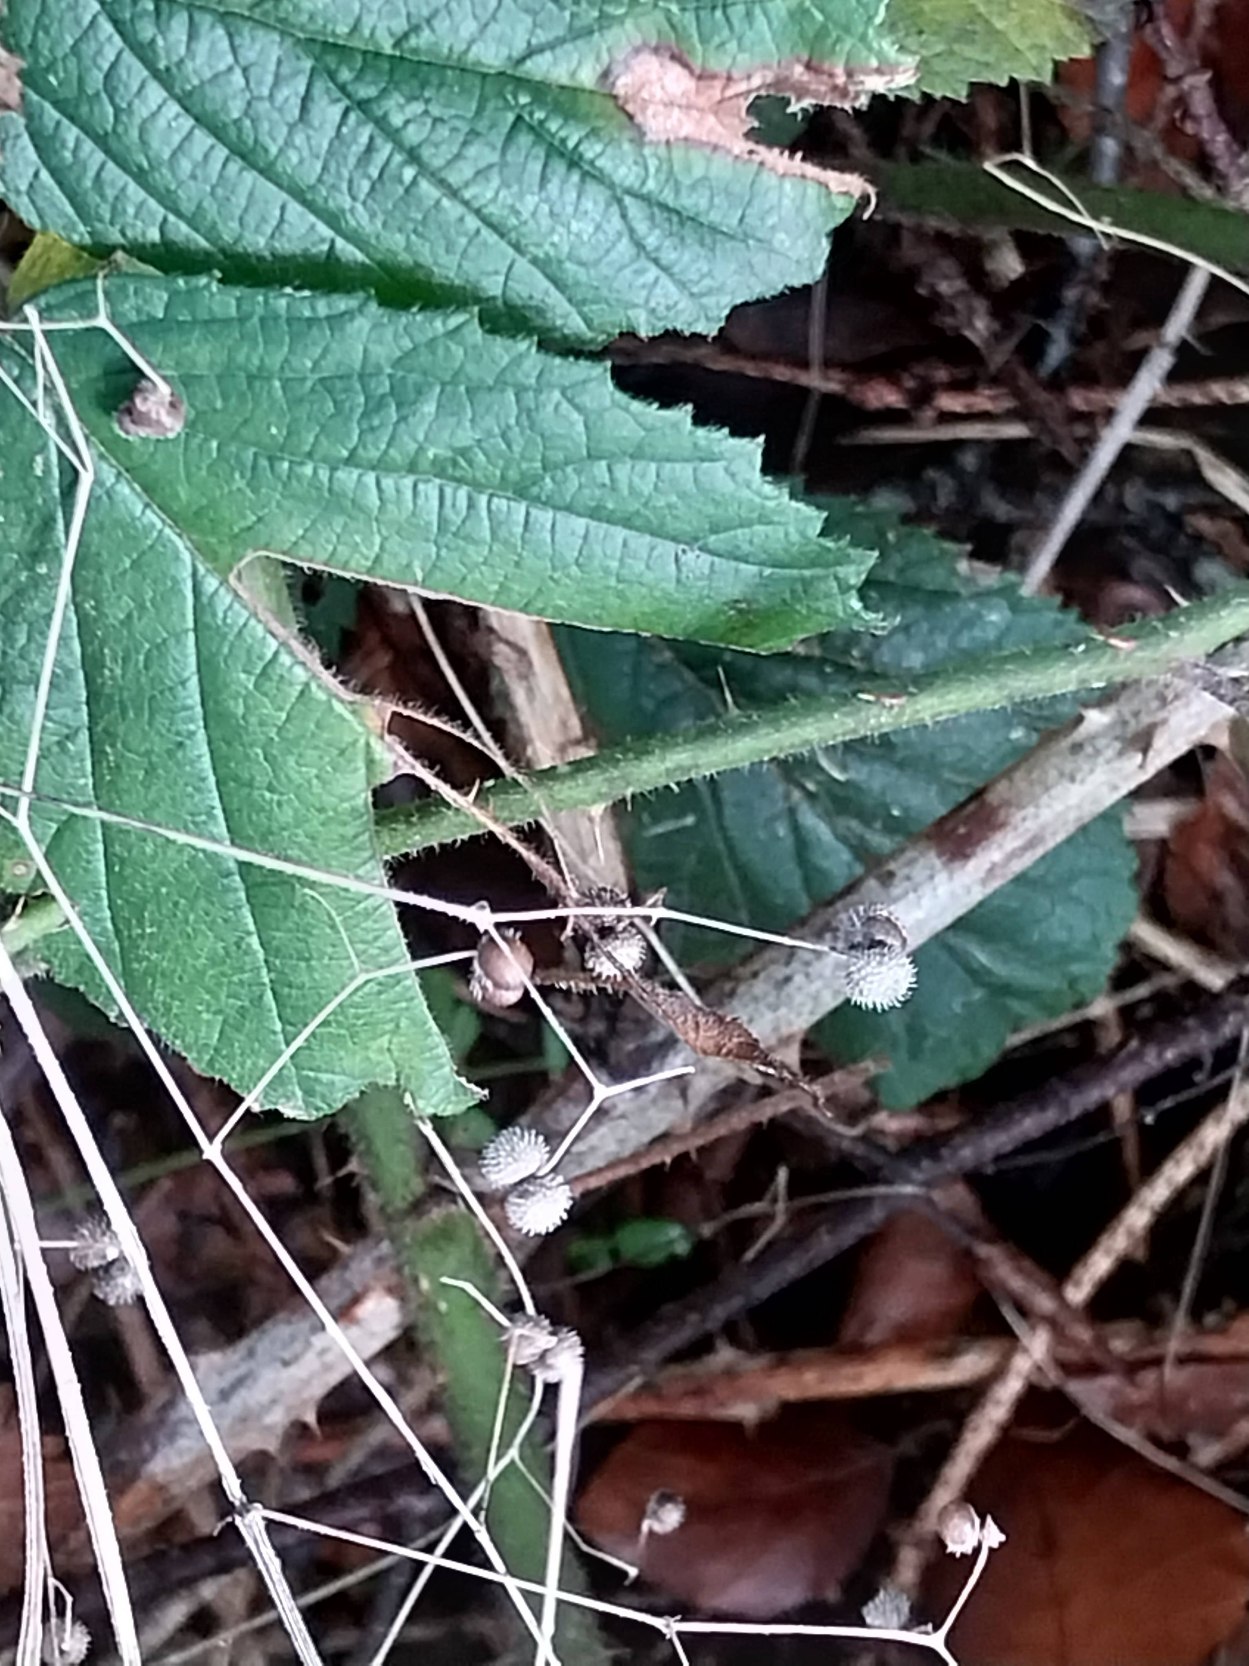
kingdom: Plantae
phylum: Tracheophyta
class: Magnoliopsida
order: Gentianales
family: Rubiaceae
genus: Galium
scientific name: Galium aparine
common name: Burre-snerre
